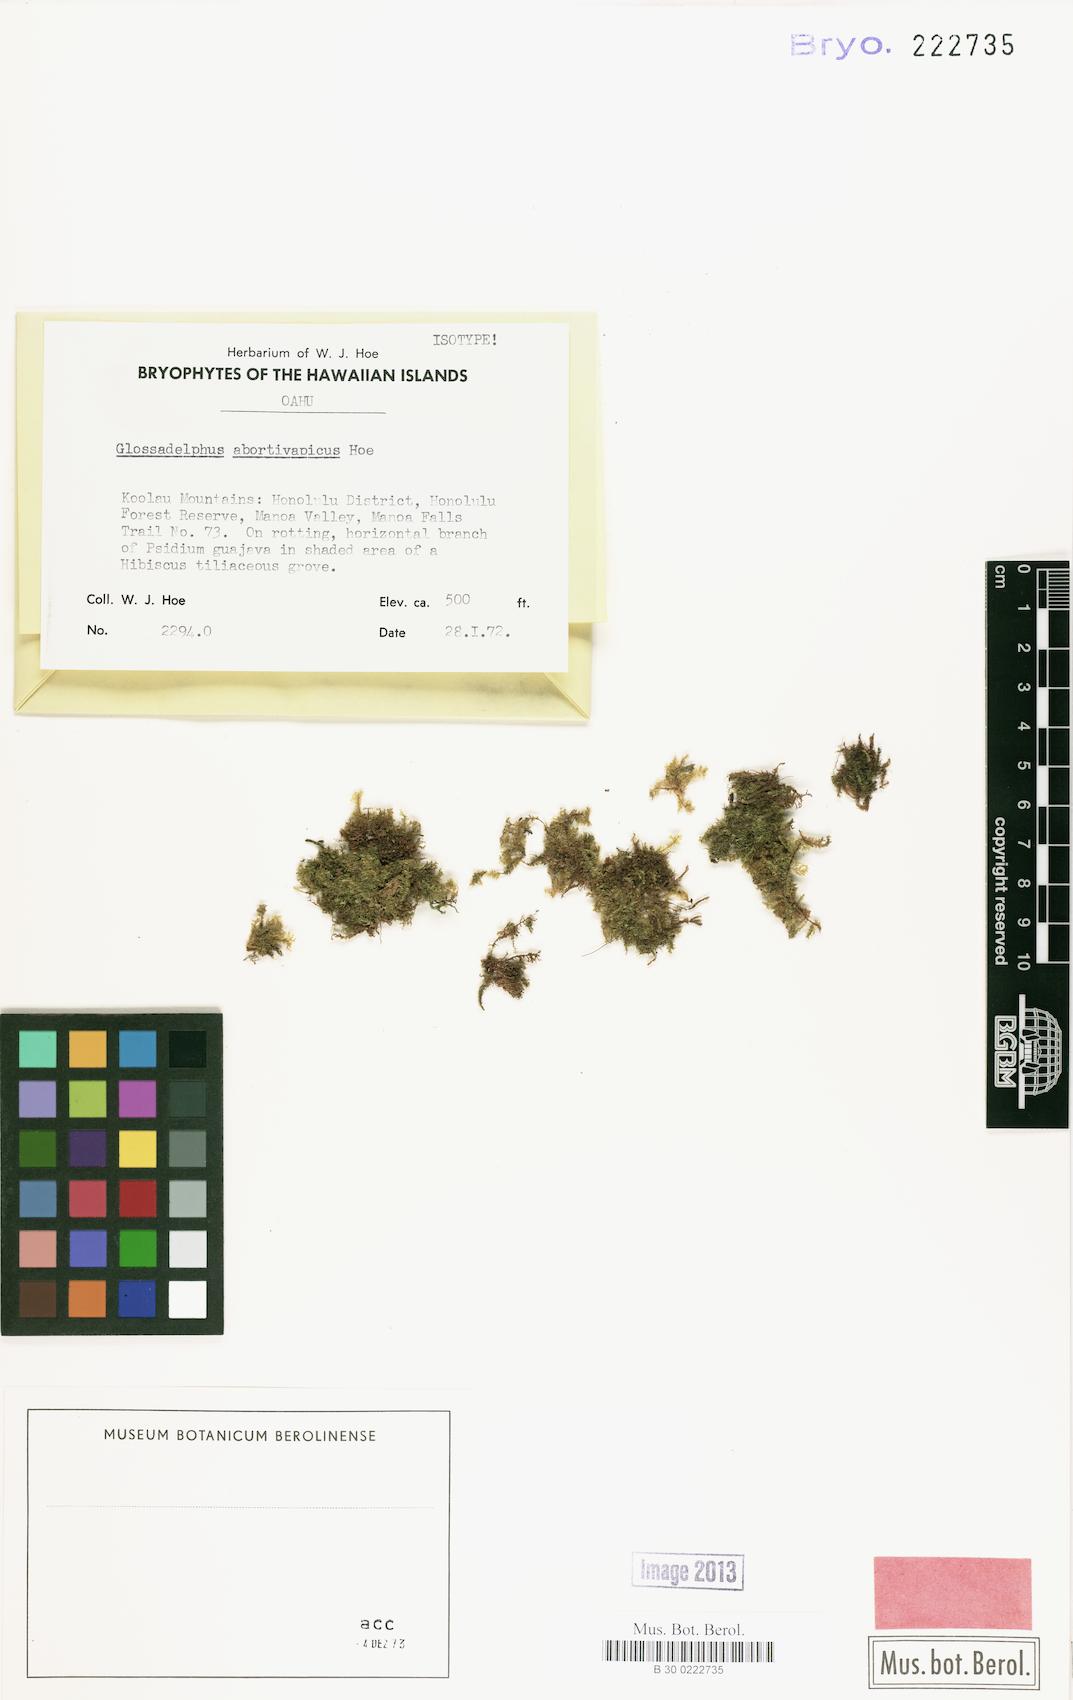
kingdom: Plantae
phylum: Bryophyta
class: Bryopsida
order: Hypnales
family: Symphyodontaceae
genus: Symphyodon
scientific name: Symphyodon pygmaeus
